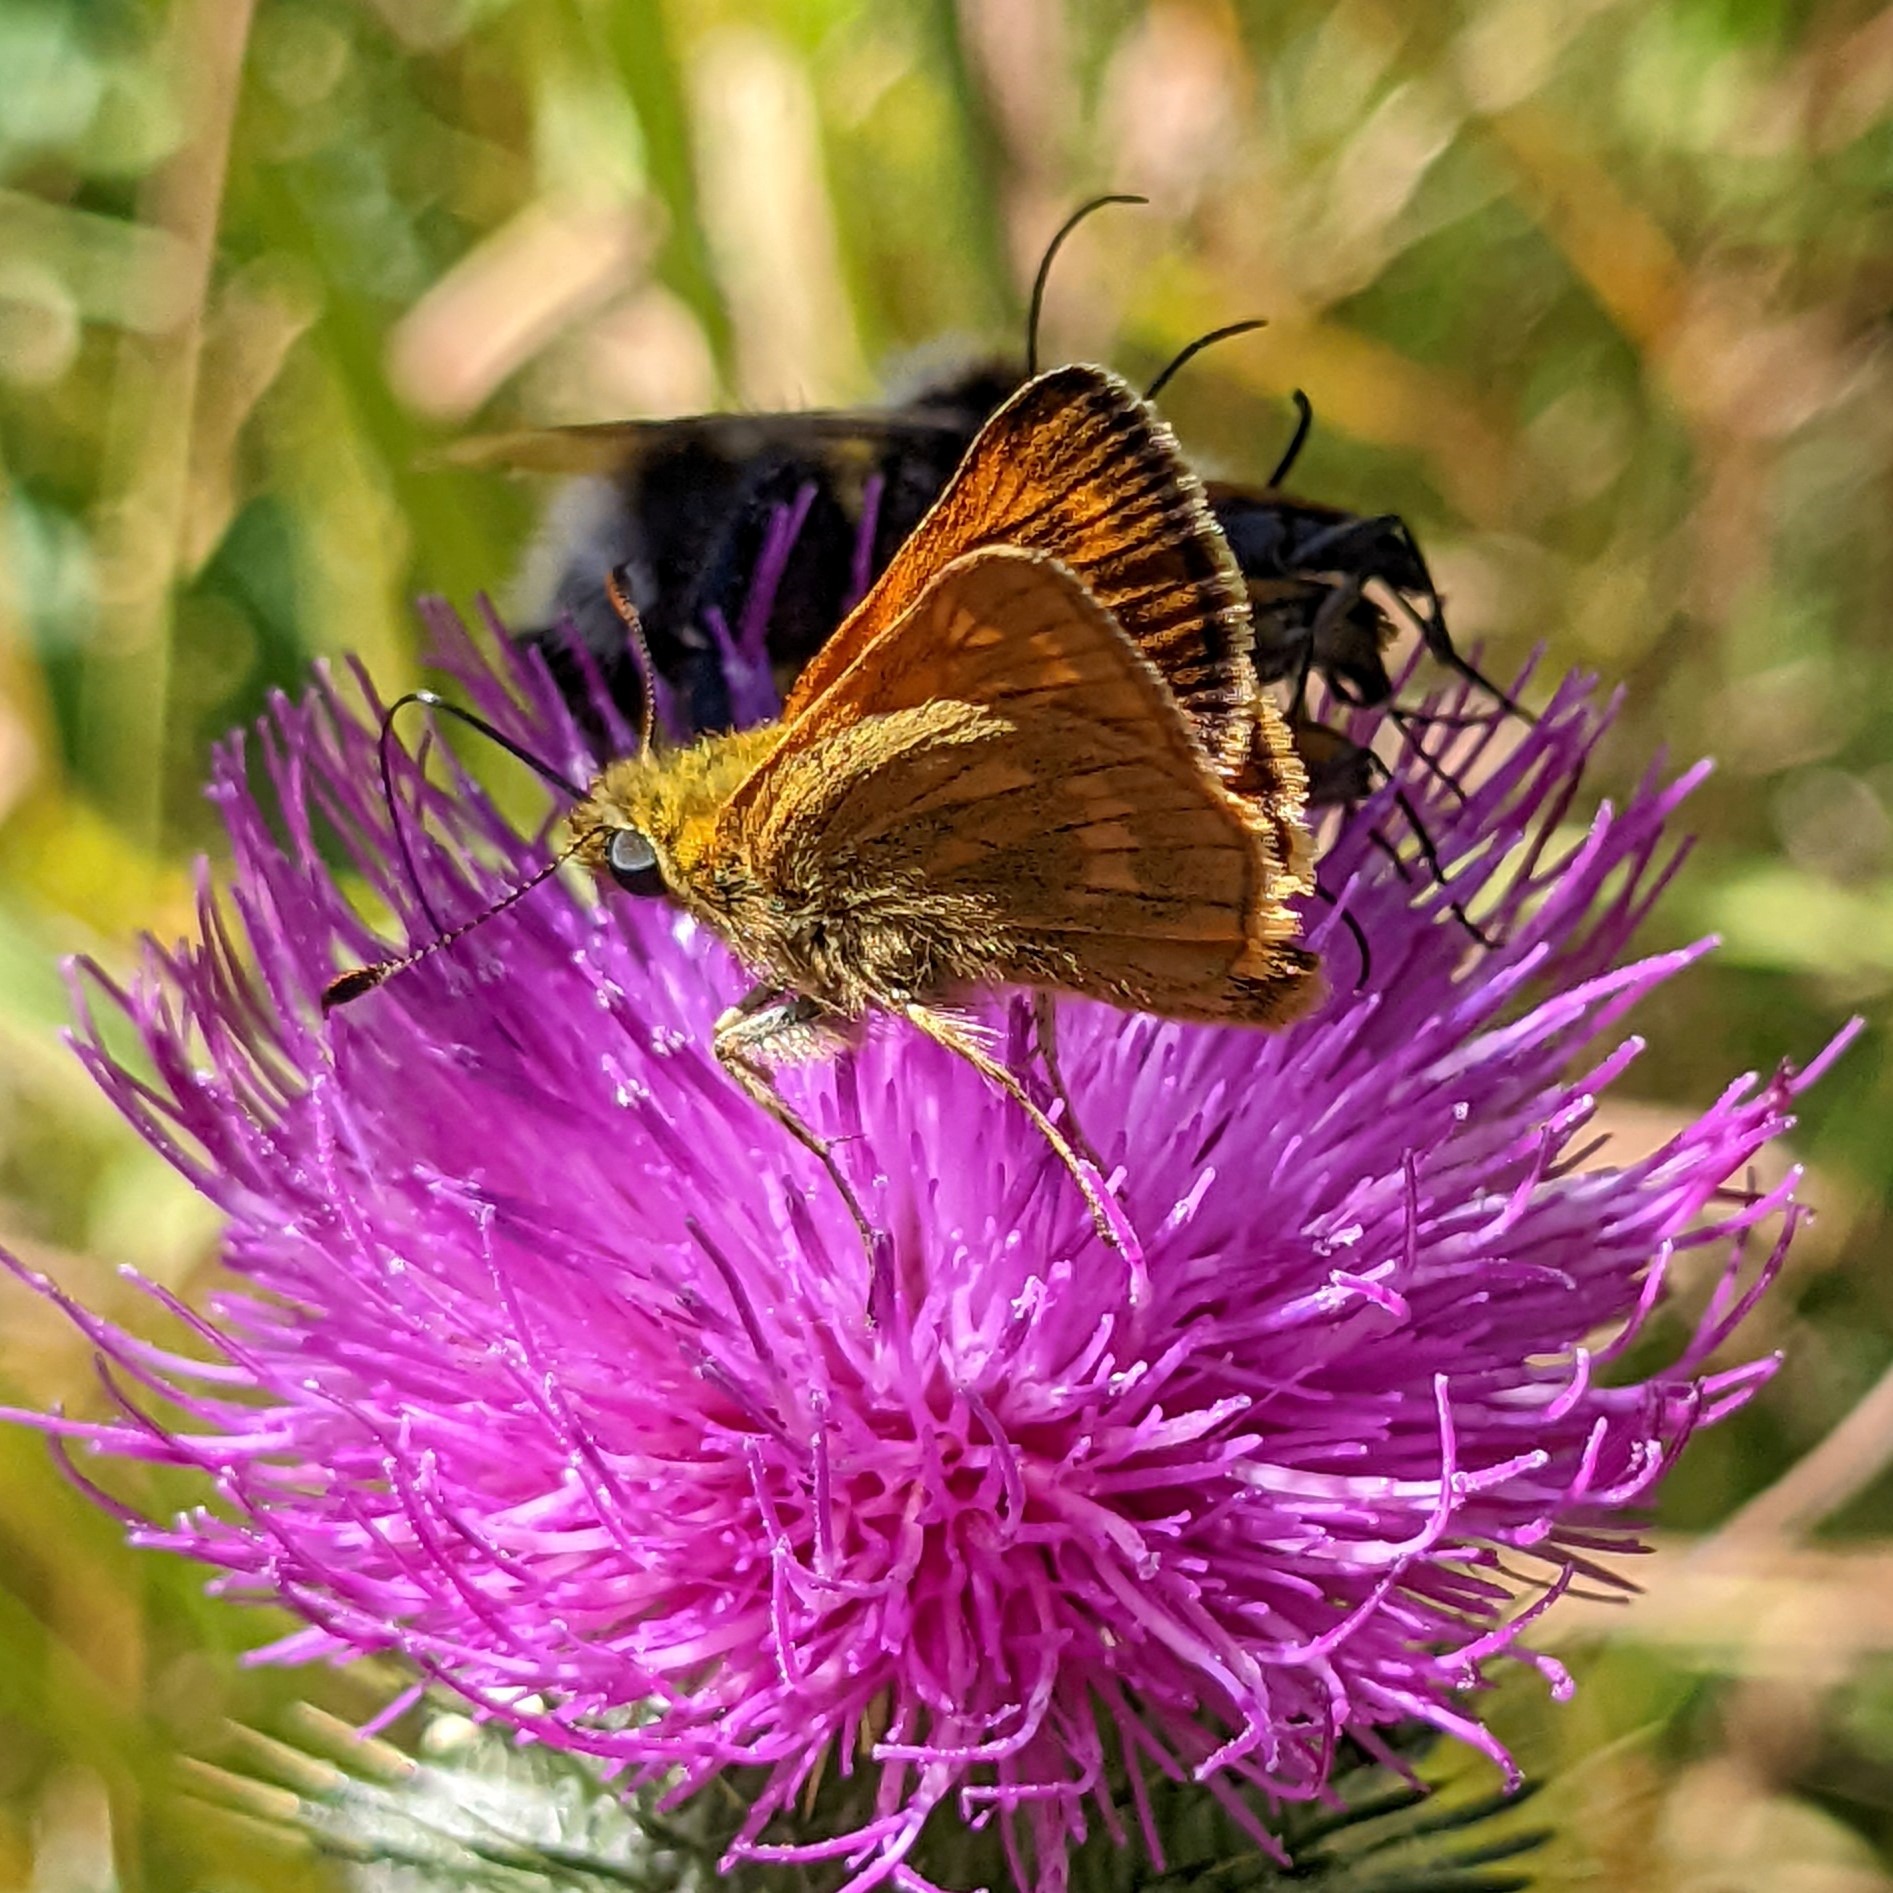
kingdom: Animalia
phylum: Arthropoda
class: Insecta
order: Lepidoptera
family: Hesperiidae
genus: Ochlodes
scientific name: Ochlodes venata
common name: Stor bredpande
